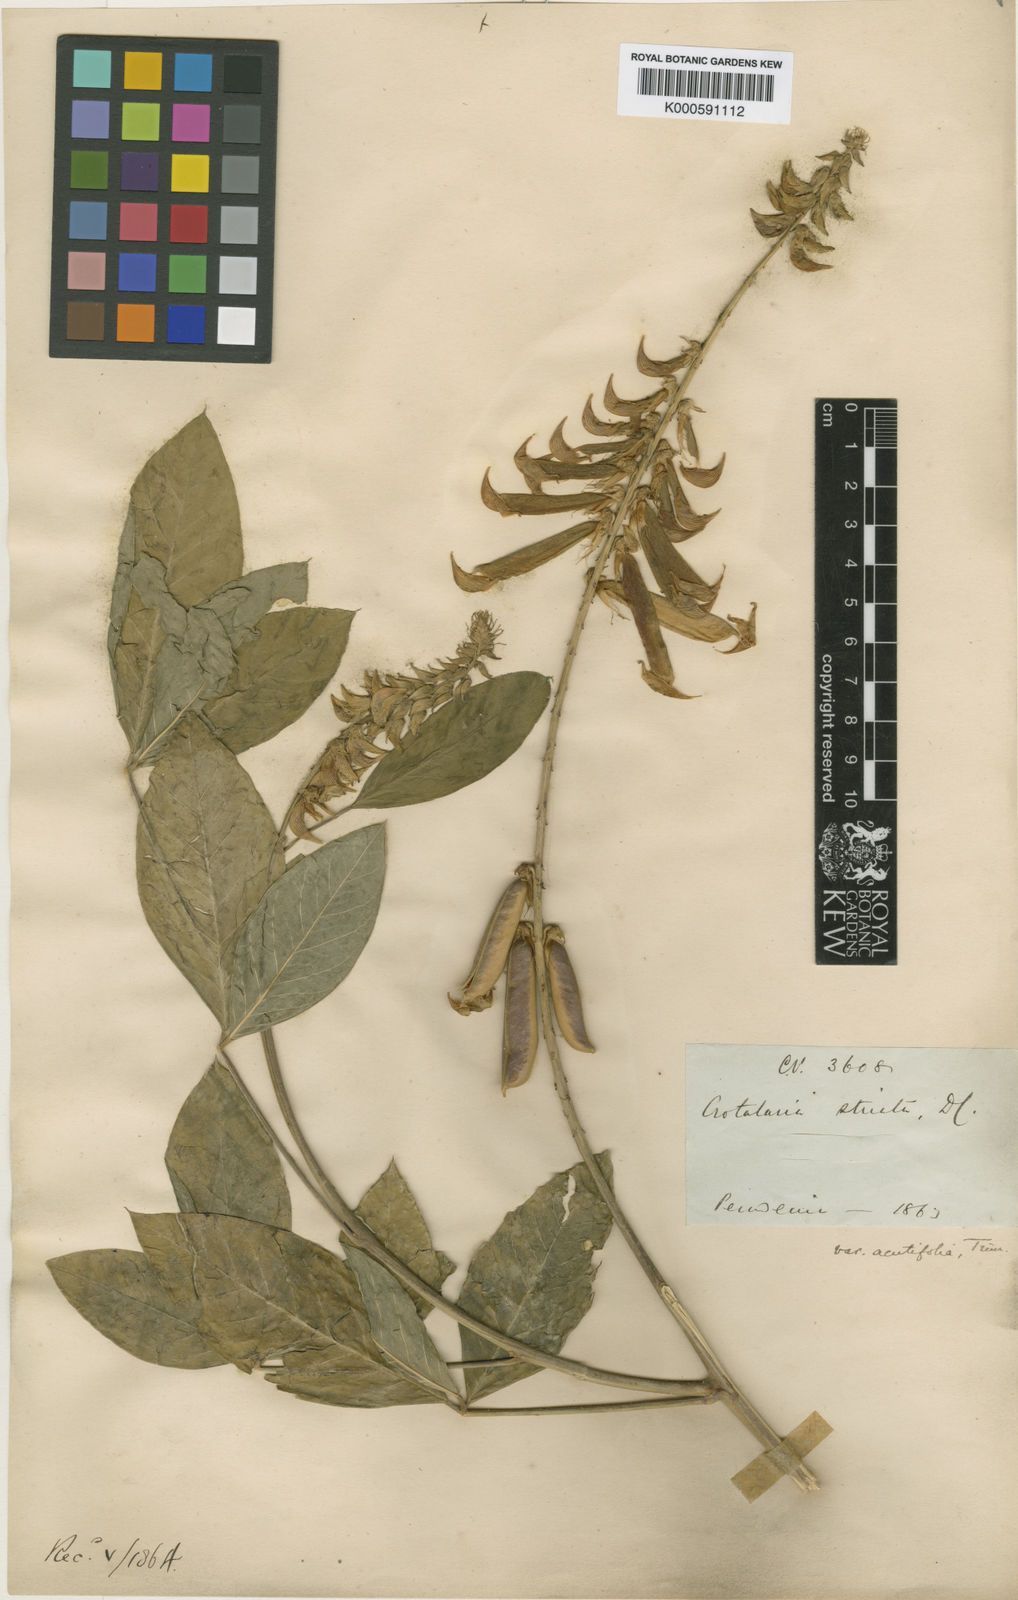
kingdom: Plantae
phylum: Tracheophyta
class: Magnoliopsida
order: Fabales
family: Fabaceae
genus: Crotalaria
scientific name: Crotalaria pallida
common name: Smooth rattlebox
